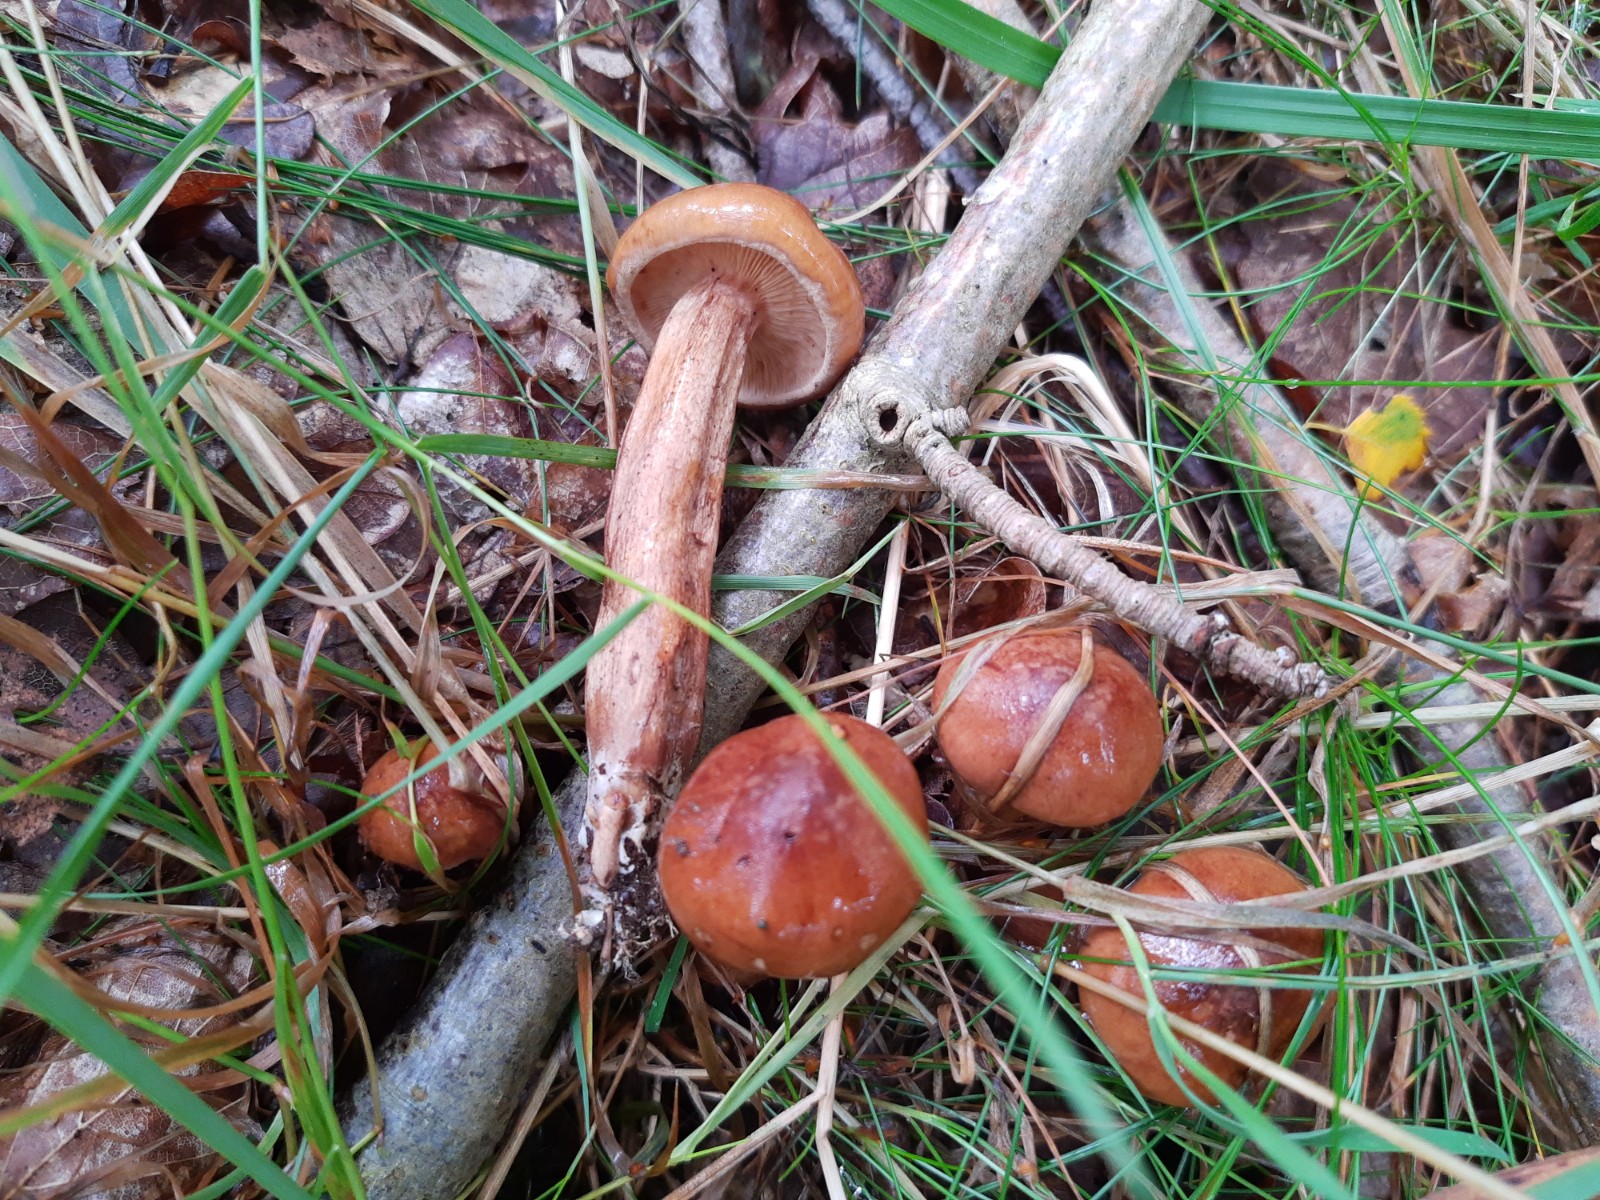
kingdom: Fungi
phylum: Basidiomycota
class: Agaricomycetes
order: Agaricales
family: Tricholomataceae
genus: Tricholoma
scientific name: Tricholoma ustale
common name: sveden ridderhat
